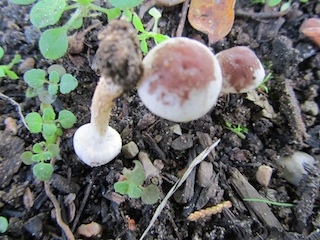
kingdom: Fungi
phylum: Basidiomycota
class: Agaricomycetes
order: Agaricales
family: Hymenogastraceae
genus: Hebeloma
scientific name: Hebeloma mesophaeum
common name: lerbrun tåreblad
